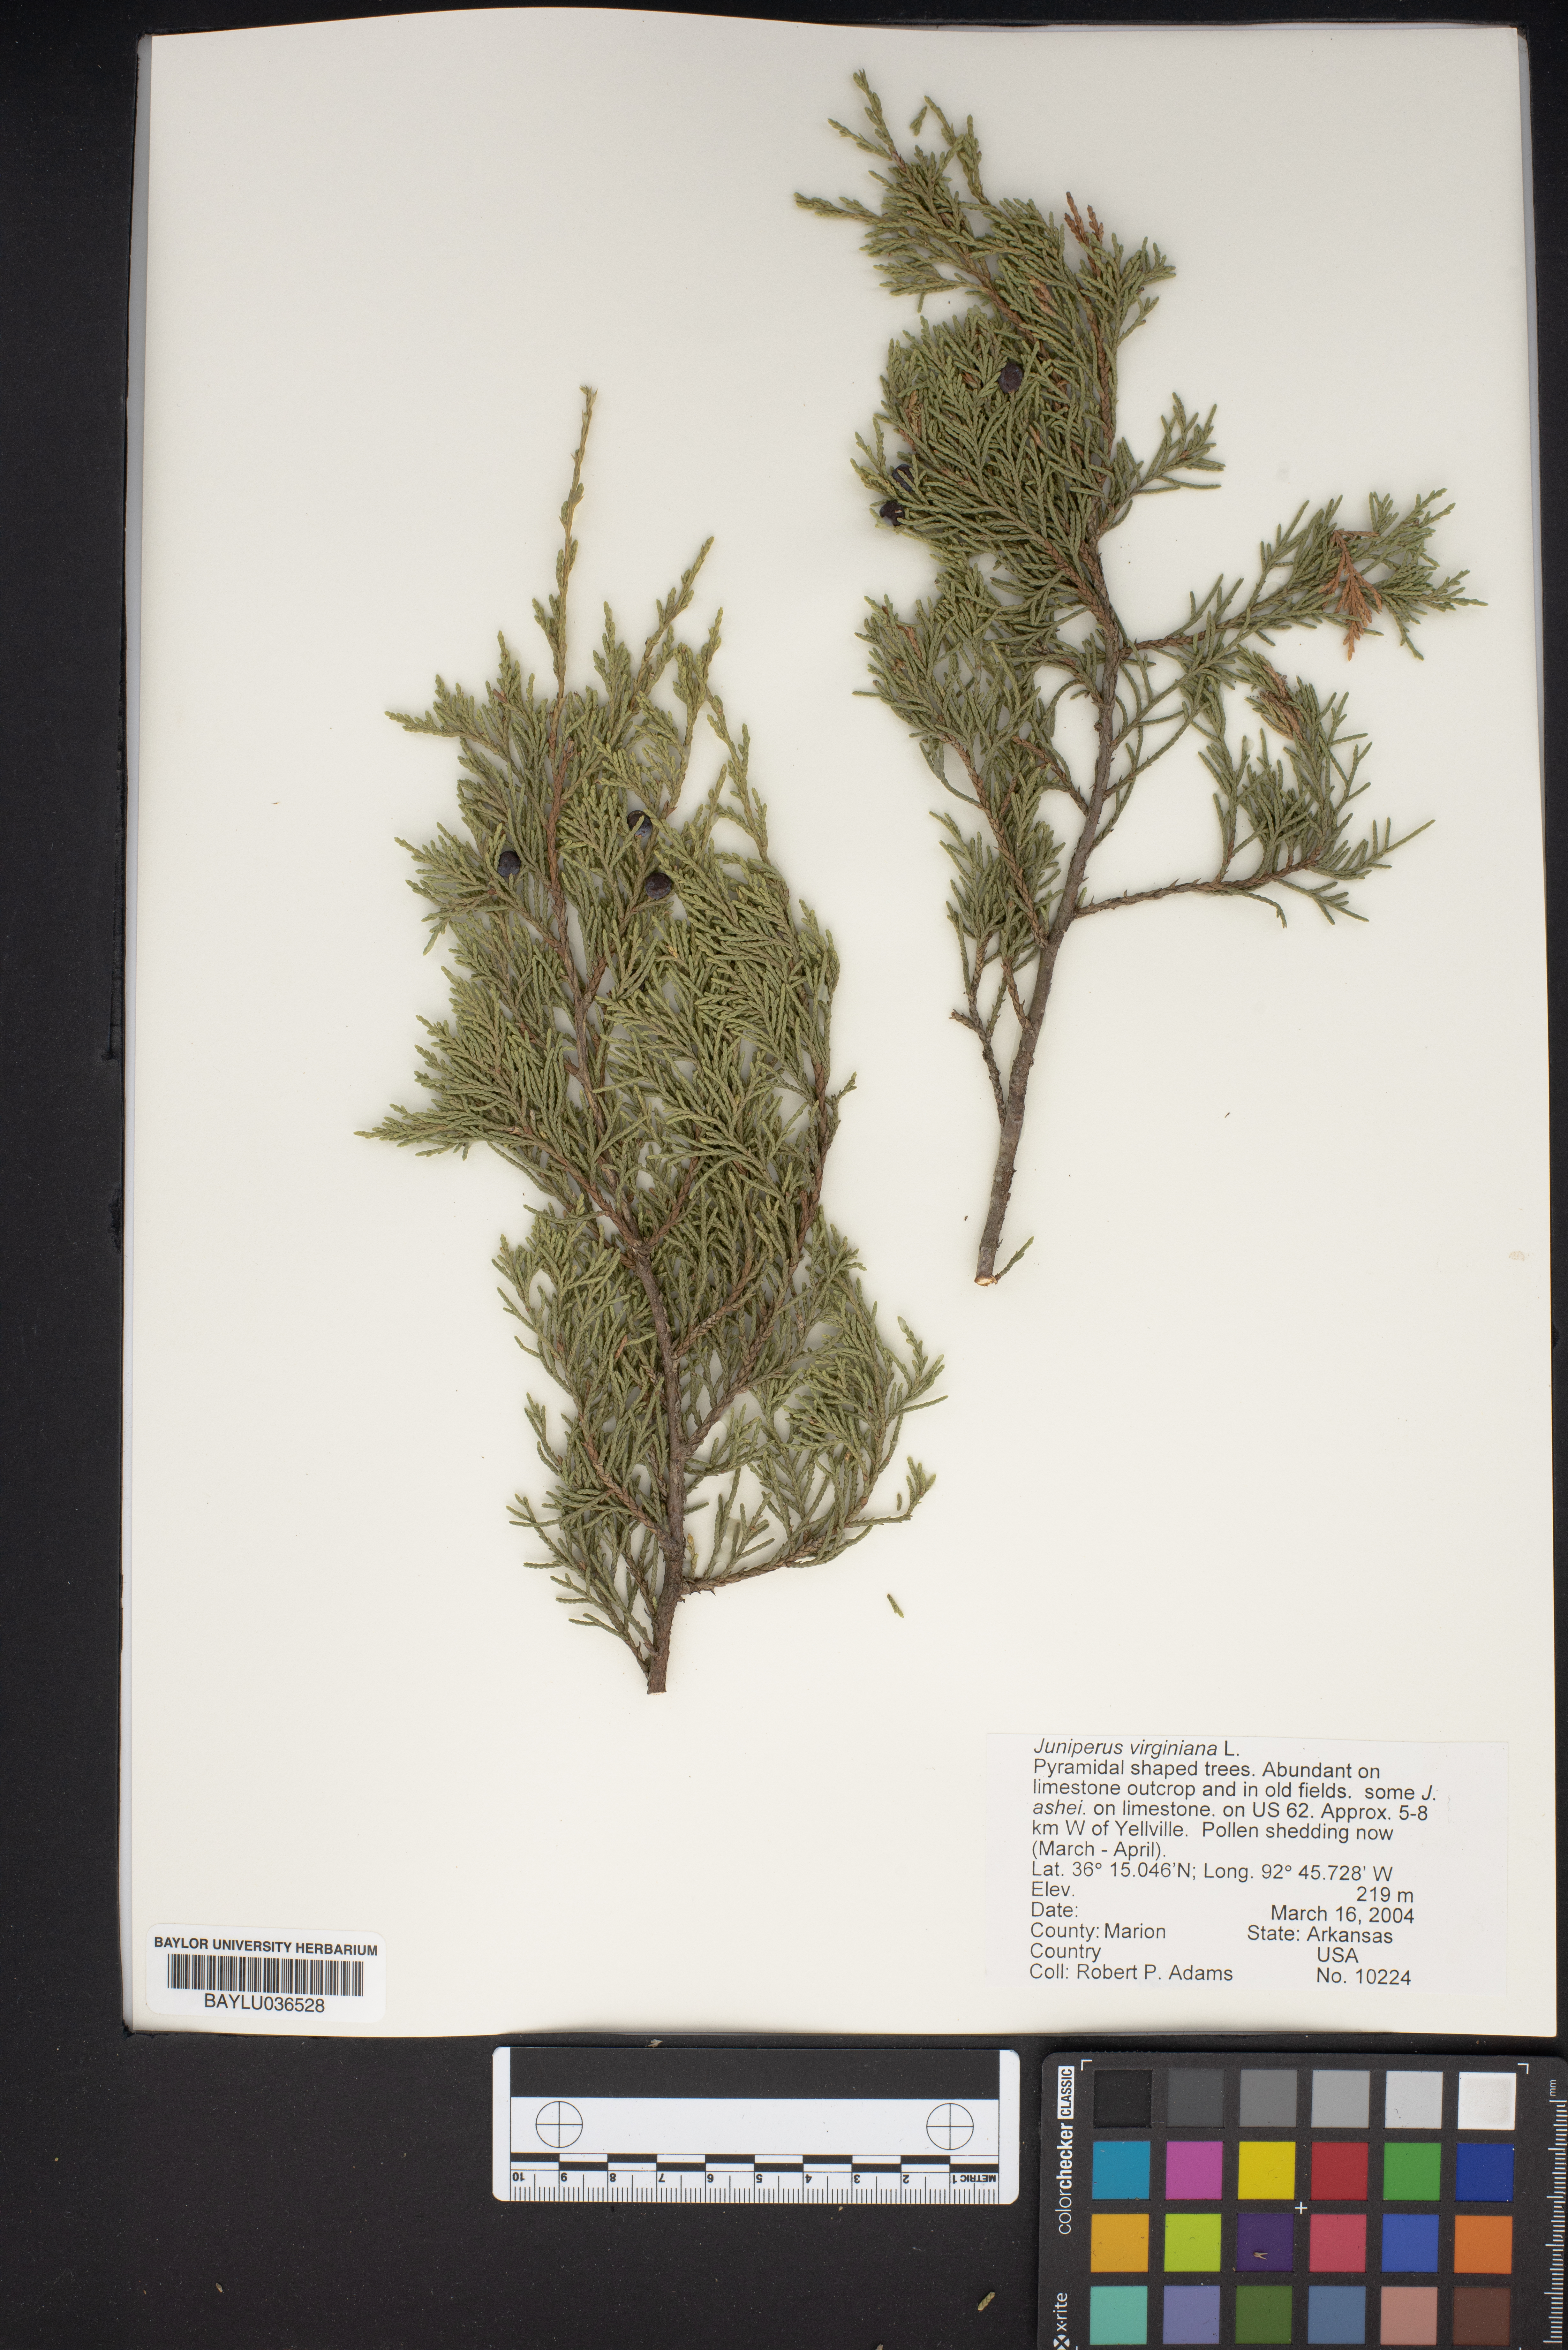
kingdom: Plantae
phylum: Tracheophyta
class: Pinopsida
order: Pinales
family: Cupressaceae
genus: Juniperus
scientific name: Juniperus virginiana
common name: Red juniper
